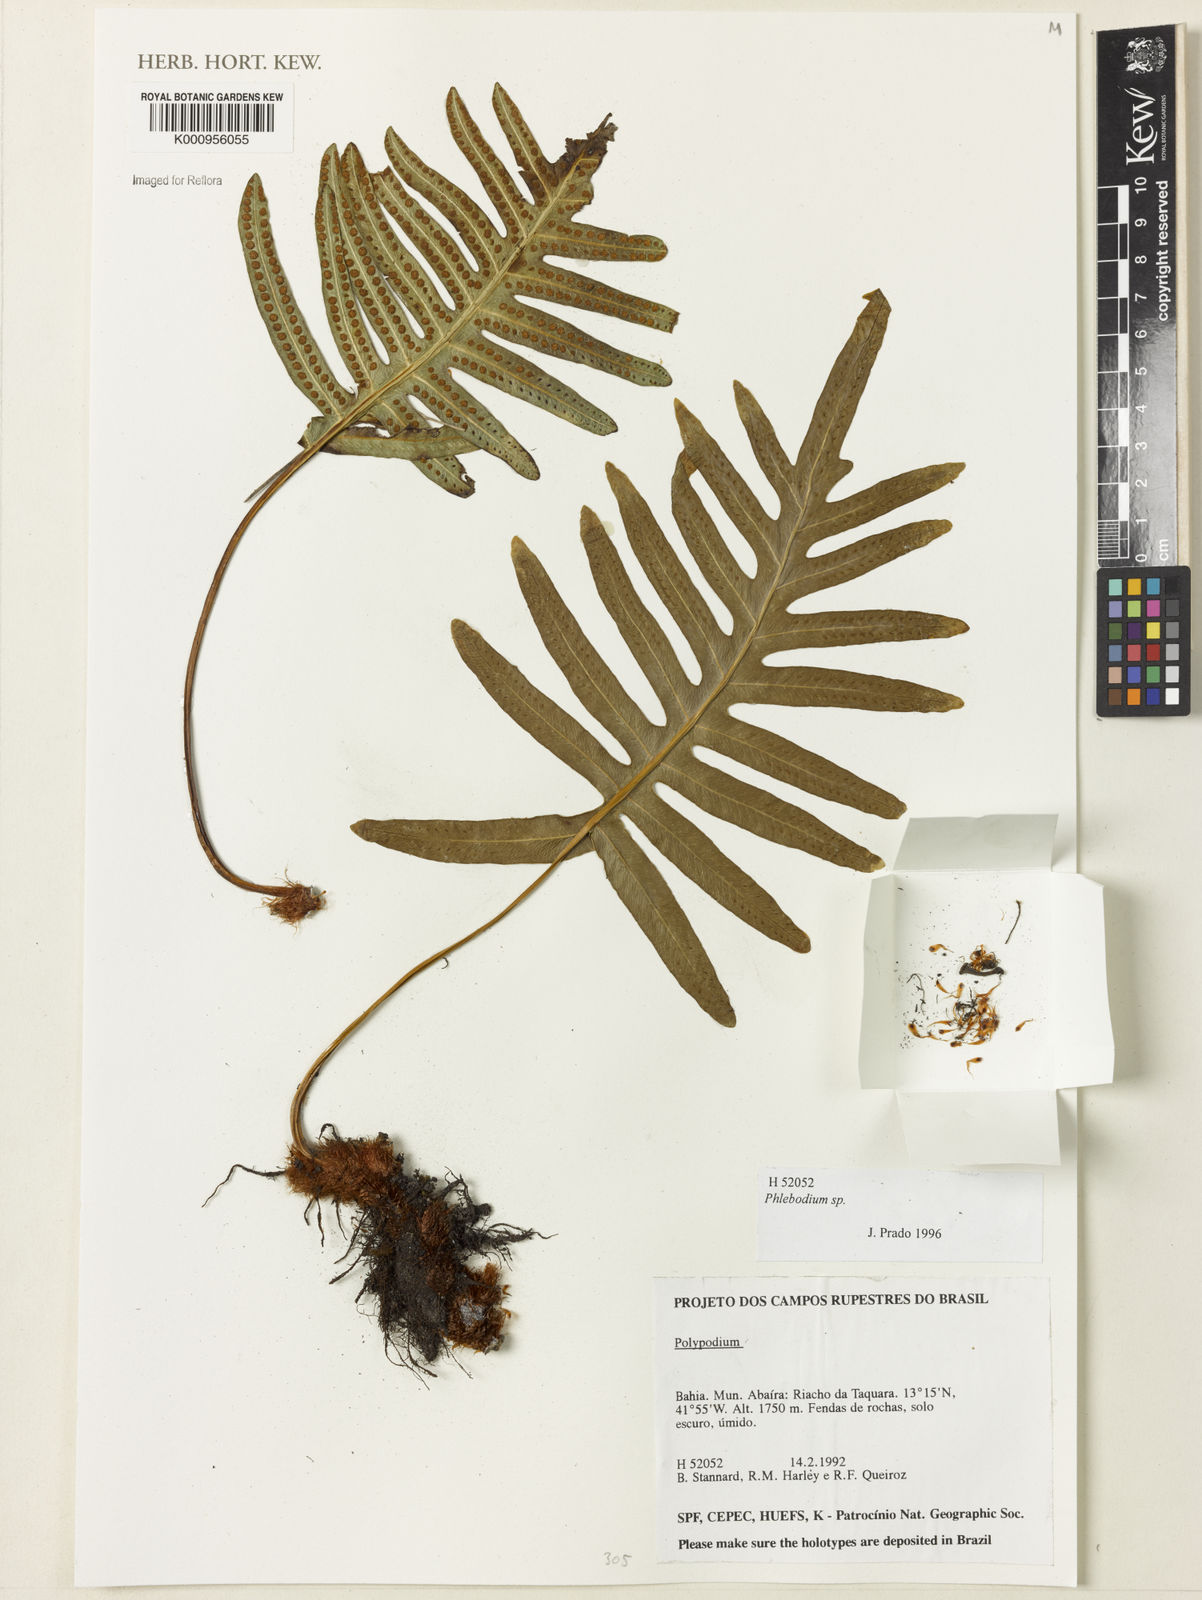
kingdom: Plantae
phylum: Tracheophyta
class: Polypodiopsida
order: Polypodiales
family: Polypodiaceae
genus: Phlebodium
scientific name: Phlebodium
